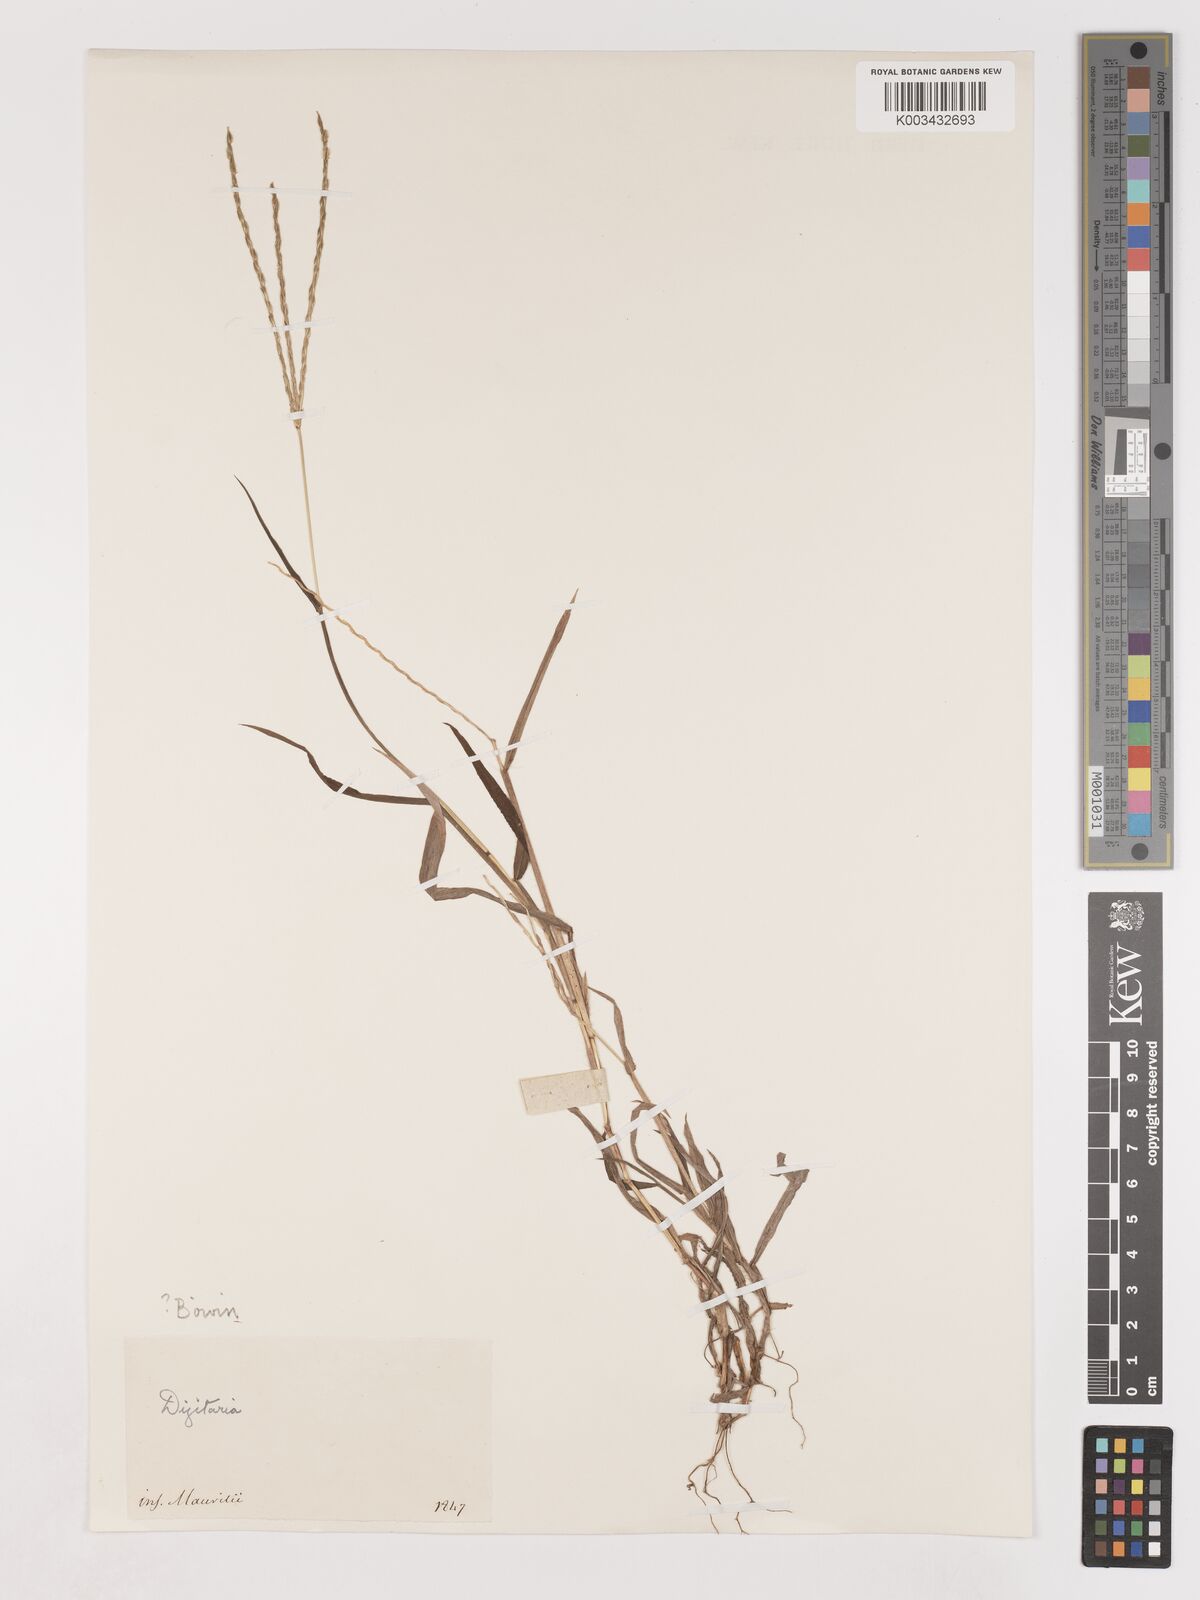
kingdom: Plantae
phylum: Tracheophyta
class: Liliopsida
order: Poales
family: Poaceae
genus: Digitaria
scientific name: Digitaria ciliaris
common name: Tropical finger-grass
